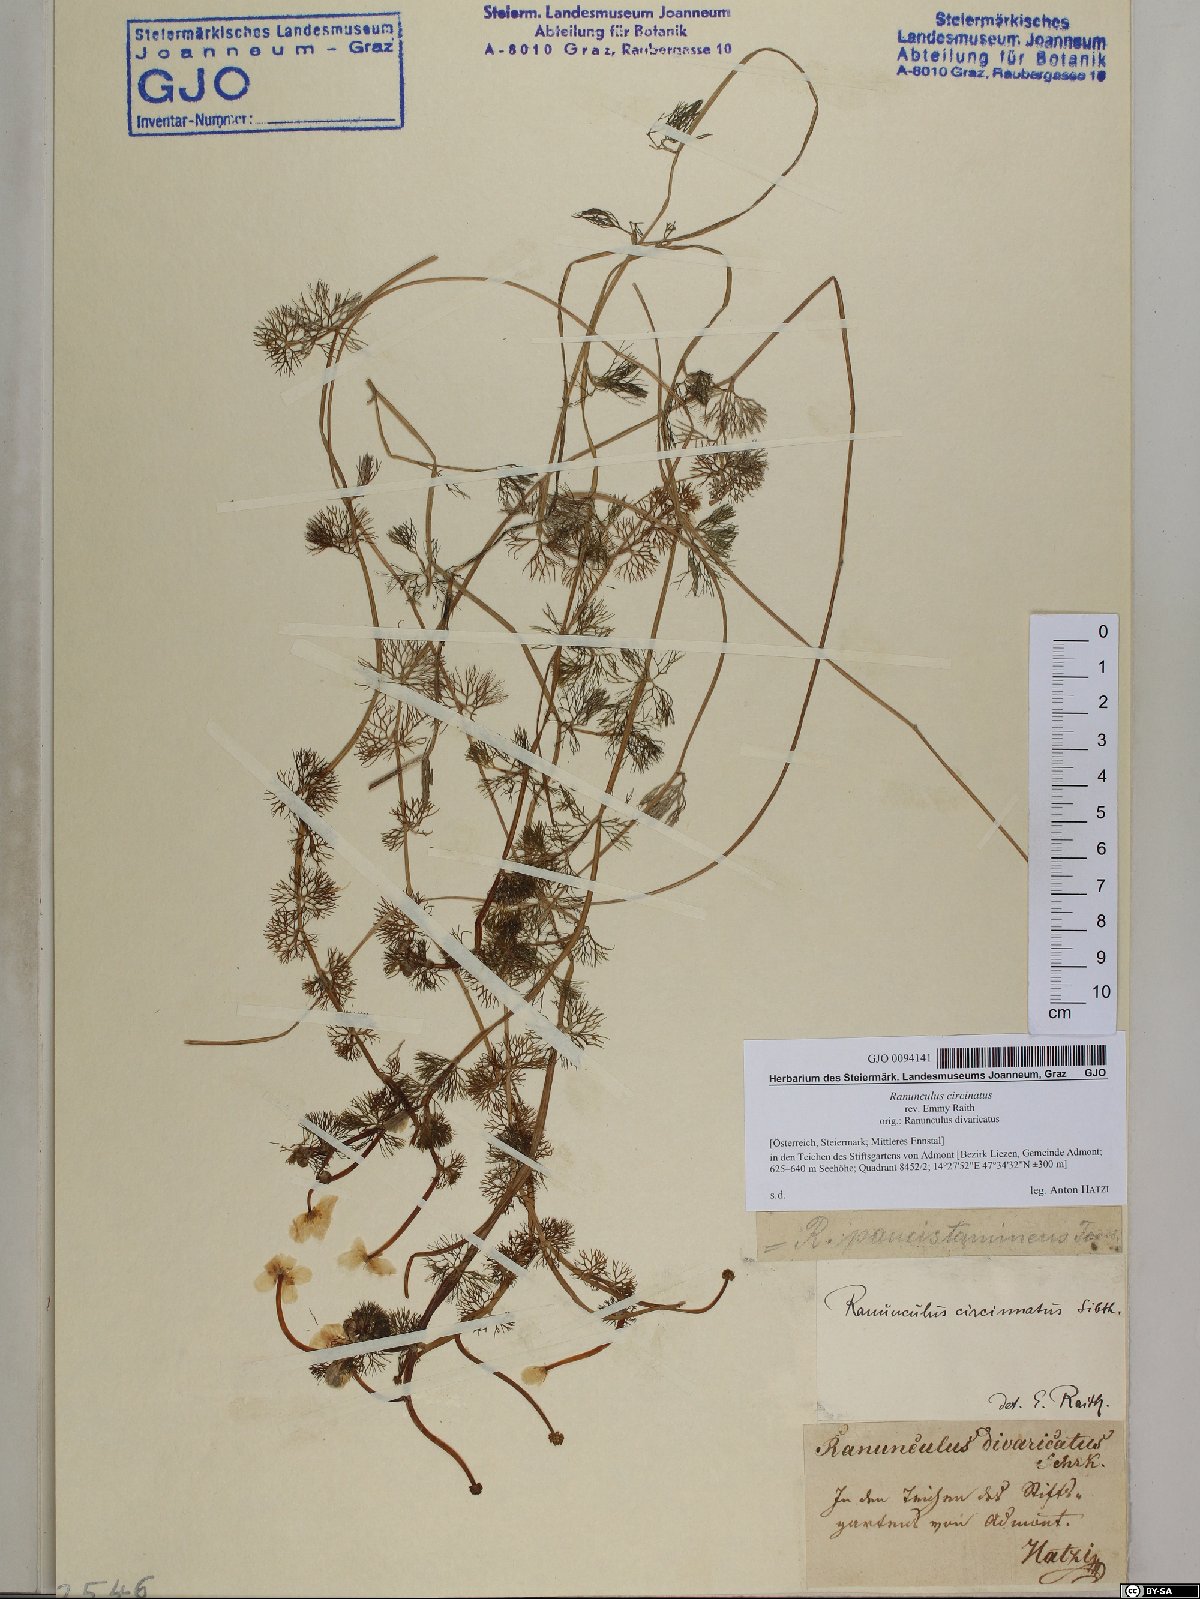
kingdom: Plantae
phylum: Tracheophyta
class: Magnoliopsida
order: Ranunculales
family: Ranunculaceae
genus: Ranunculus
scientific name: Ranunculus circinatus
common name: Fan-leaved water-crowfoot
